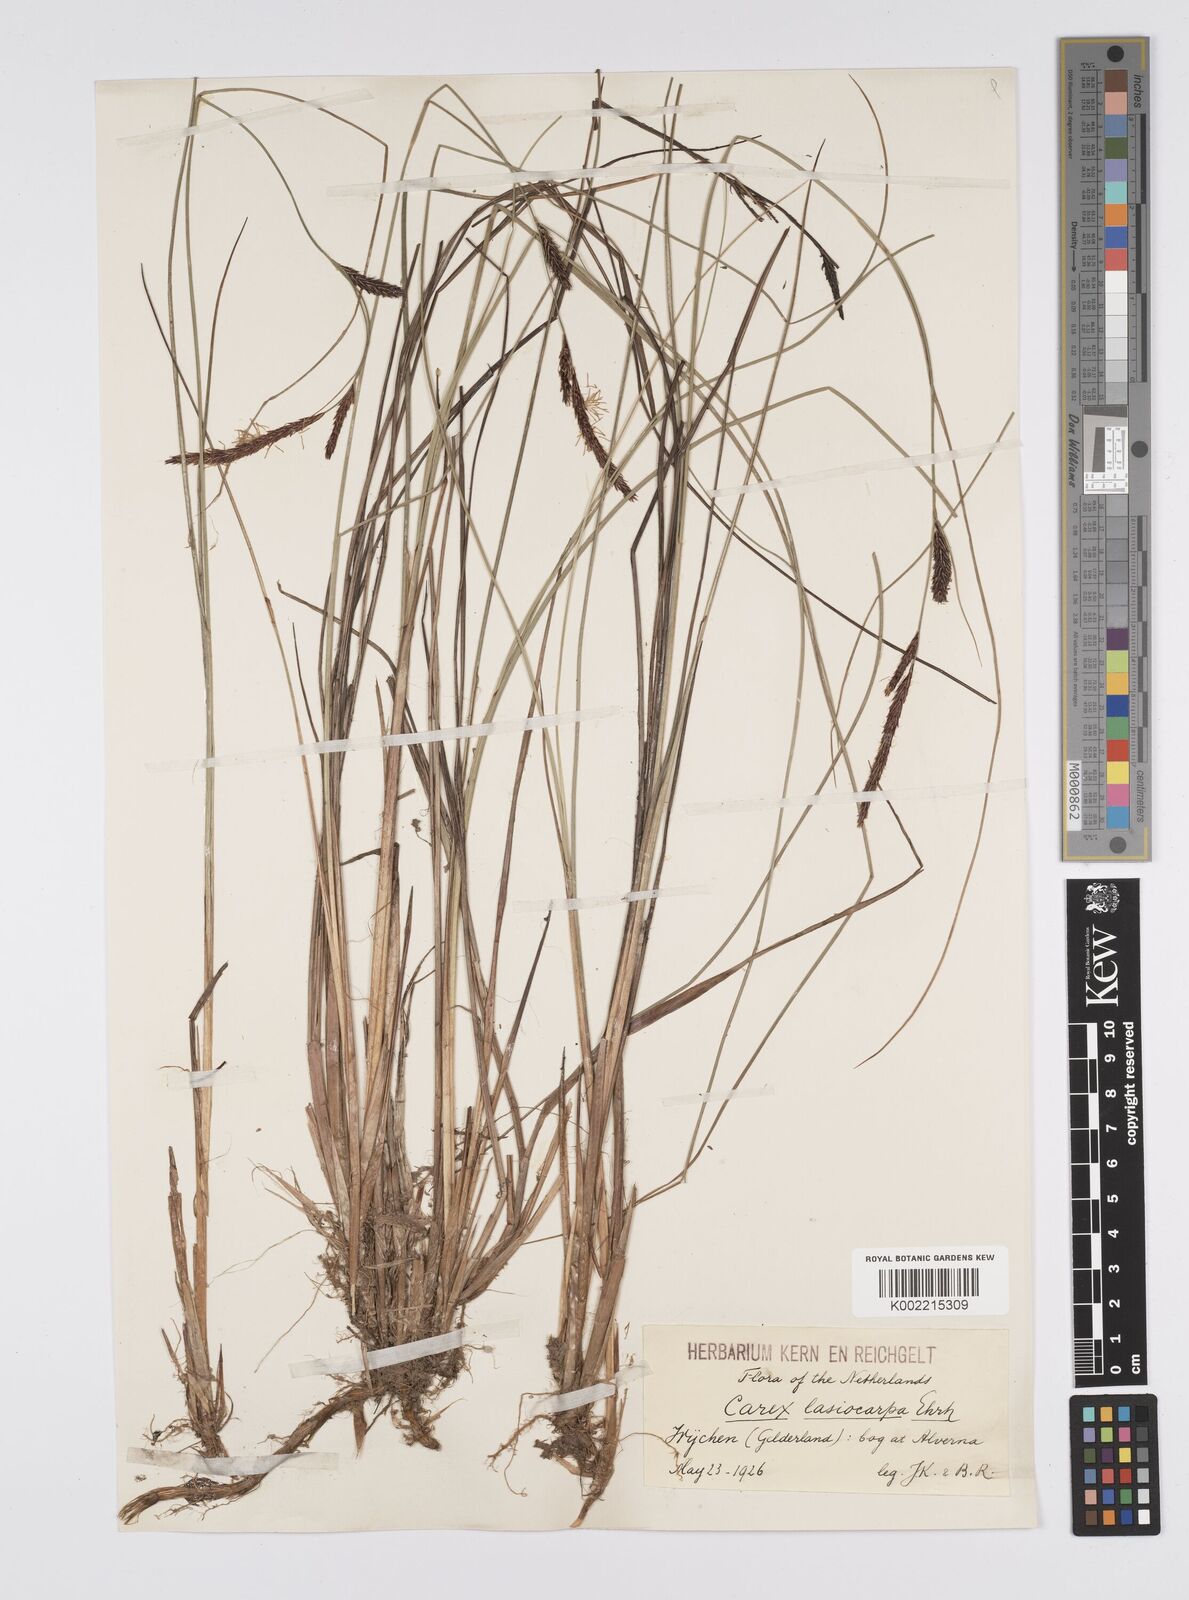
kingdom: Plantae
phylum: Tracheophyta
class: Liliopsida
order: Poales
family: Cyperaceae
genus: Carex
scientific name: Carex lasiocarpa
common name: Slender sedge
